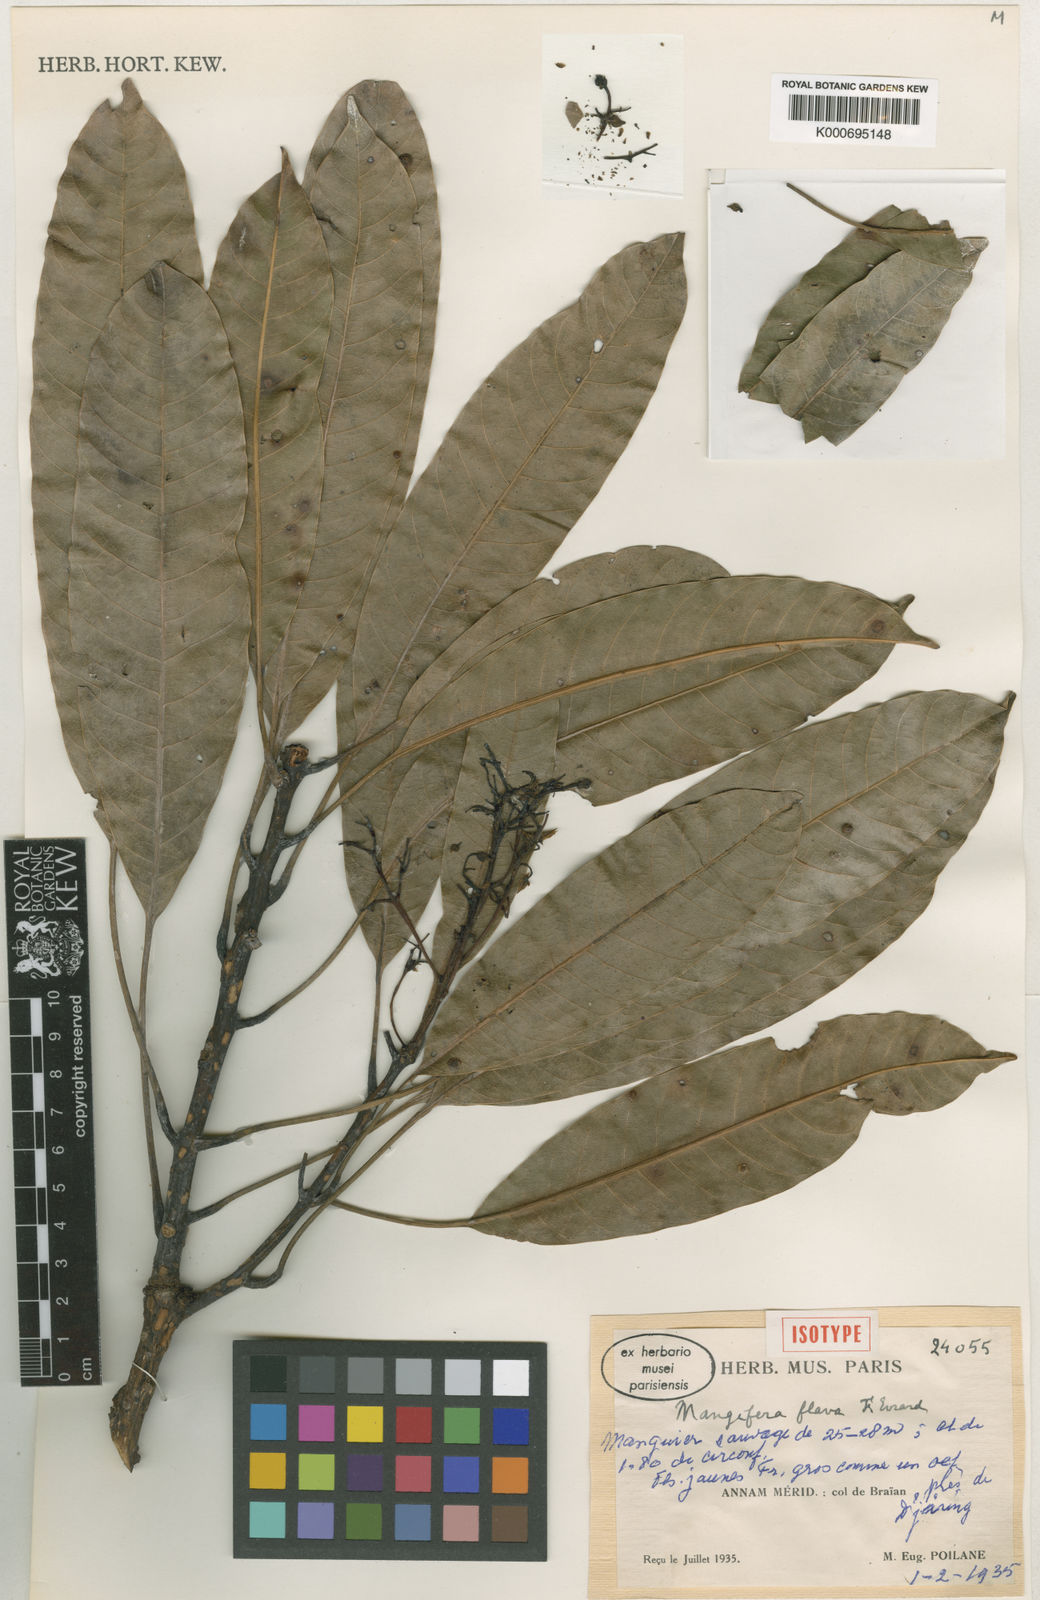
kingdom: Plantae
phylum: Tracheophyta
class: Magnoliopsida
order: Sapindales
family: Anacardiaceae
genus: Mangifera
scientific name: Mangifera flava
